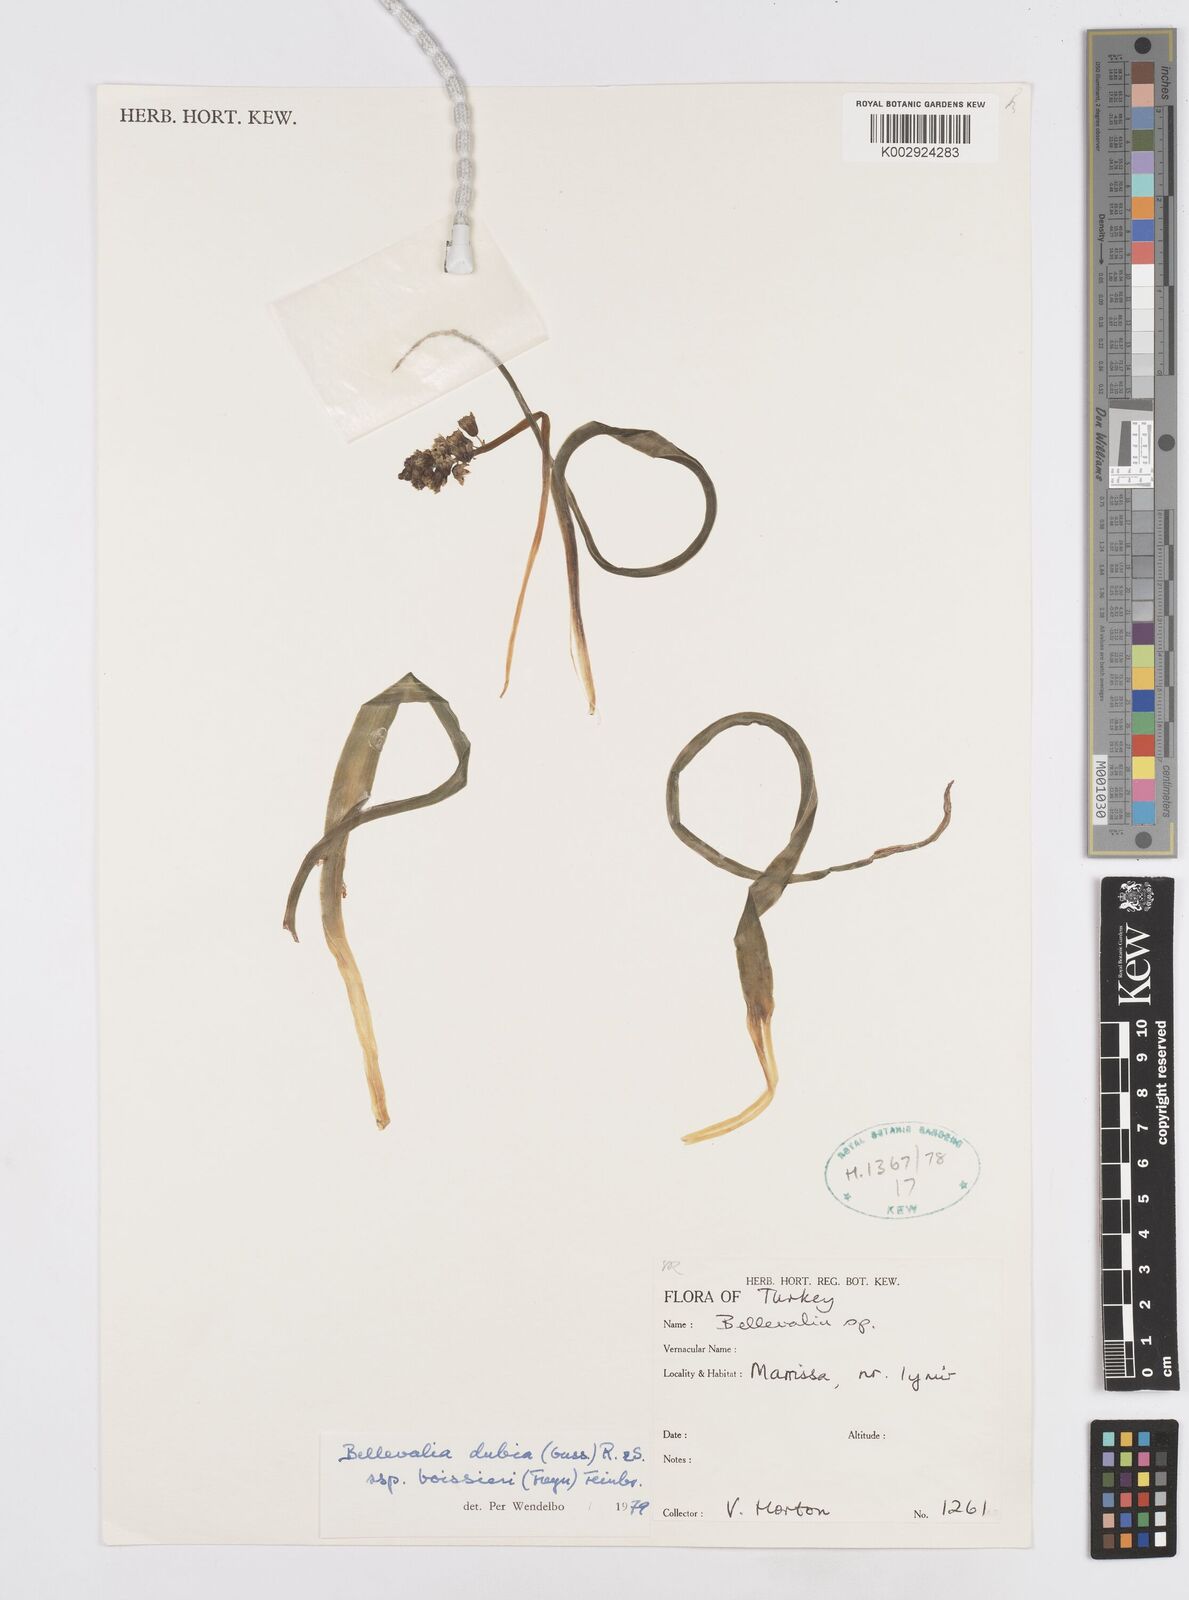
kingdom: Plantae
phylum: Tracheophyta
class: Liliopsida
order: Asparagales
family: Asparagaceae
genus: Bellevalia
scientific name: Bellevalia dubia
